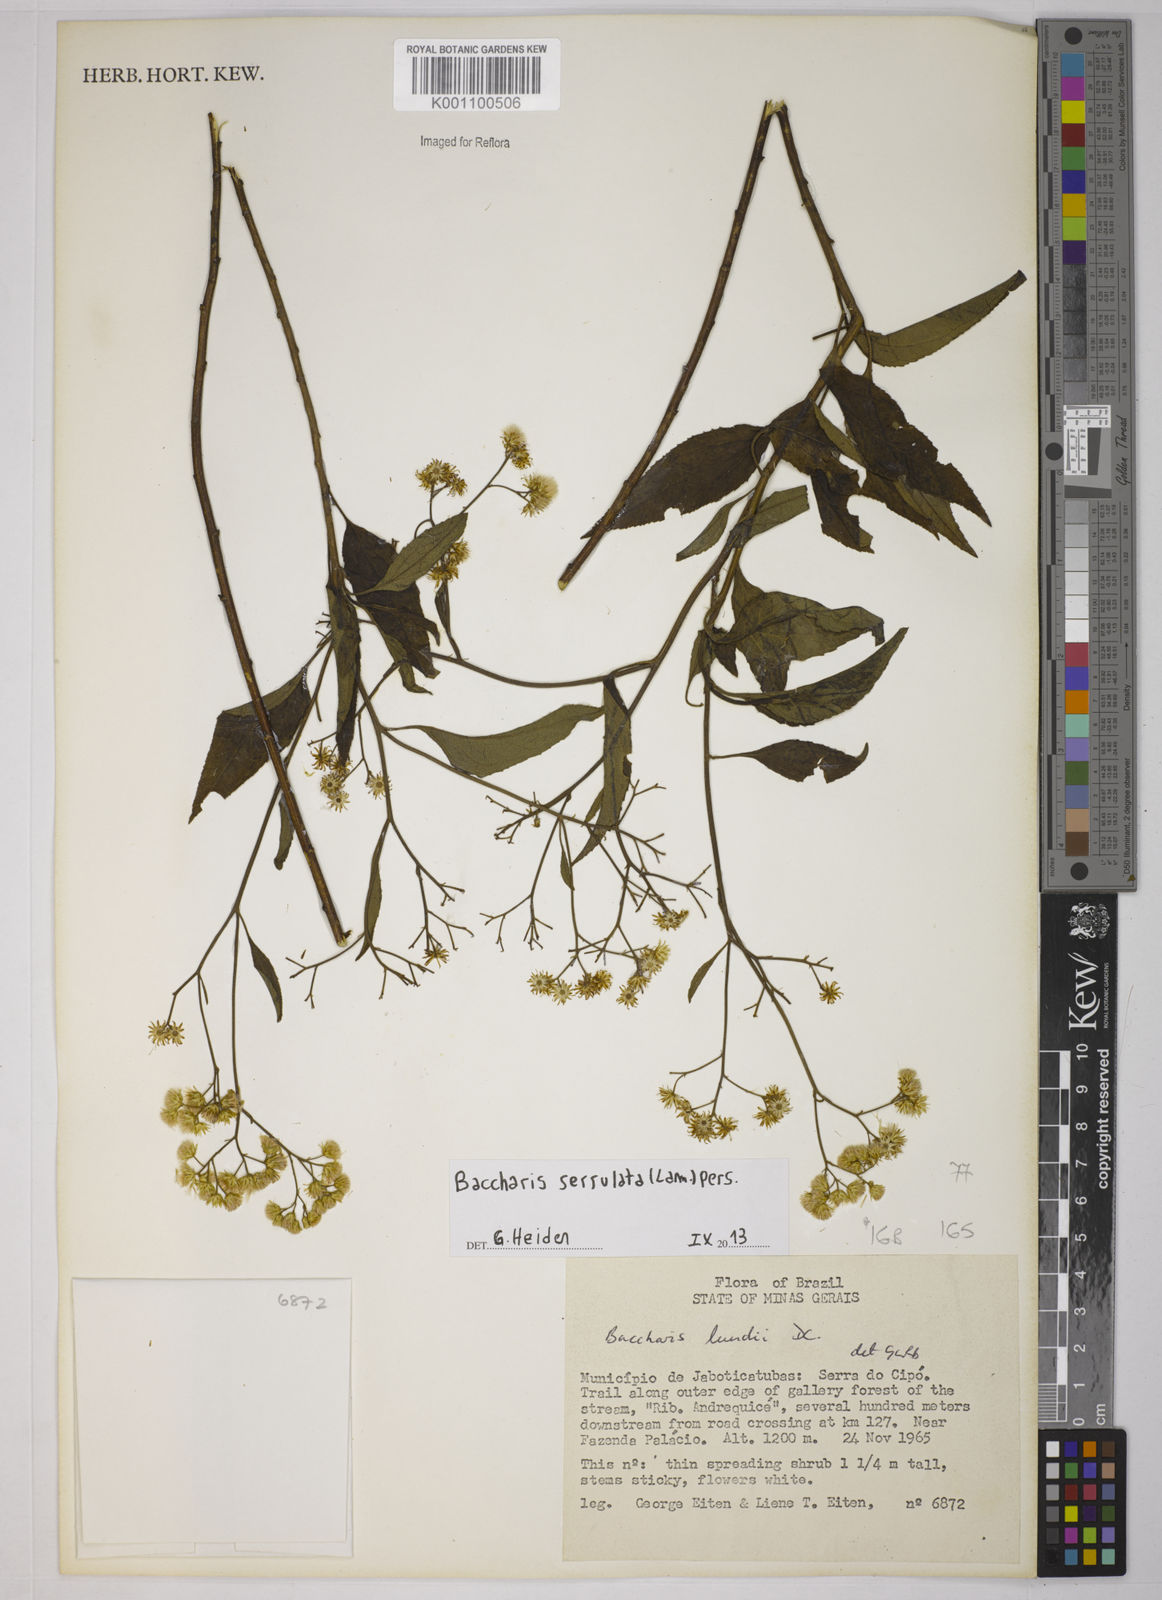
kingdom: Plantae
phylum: Tracheophyta
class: Magnoliopsida
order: Asterales
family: Asteraceae
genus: Baccharis
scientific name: Baccharis serrulata
